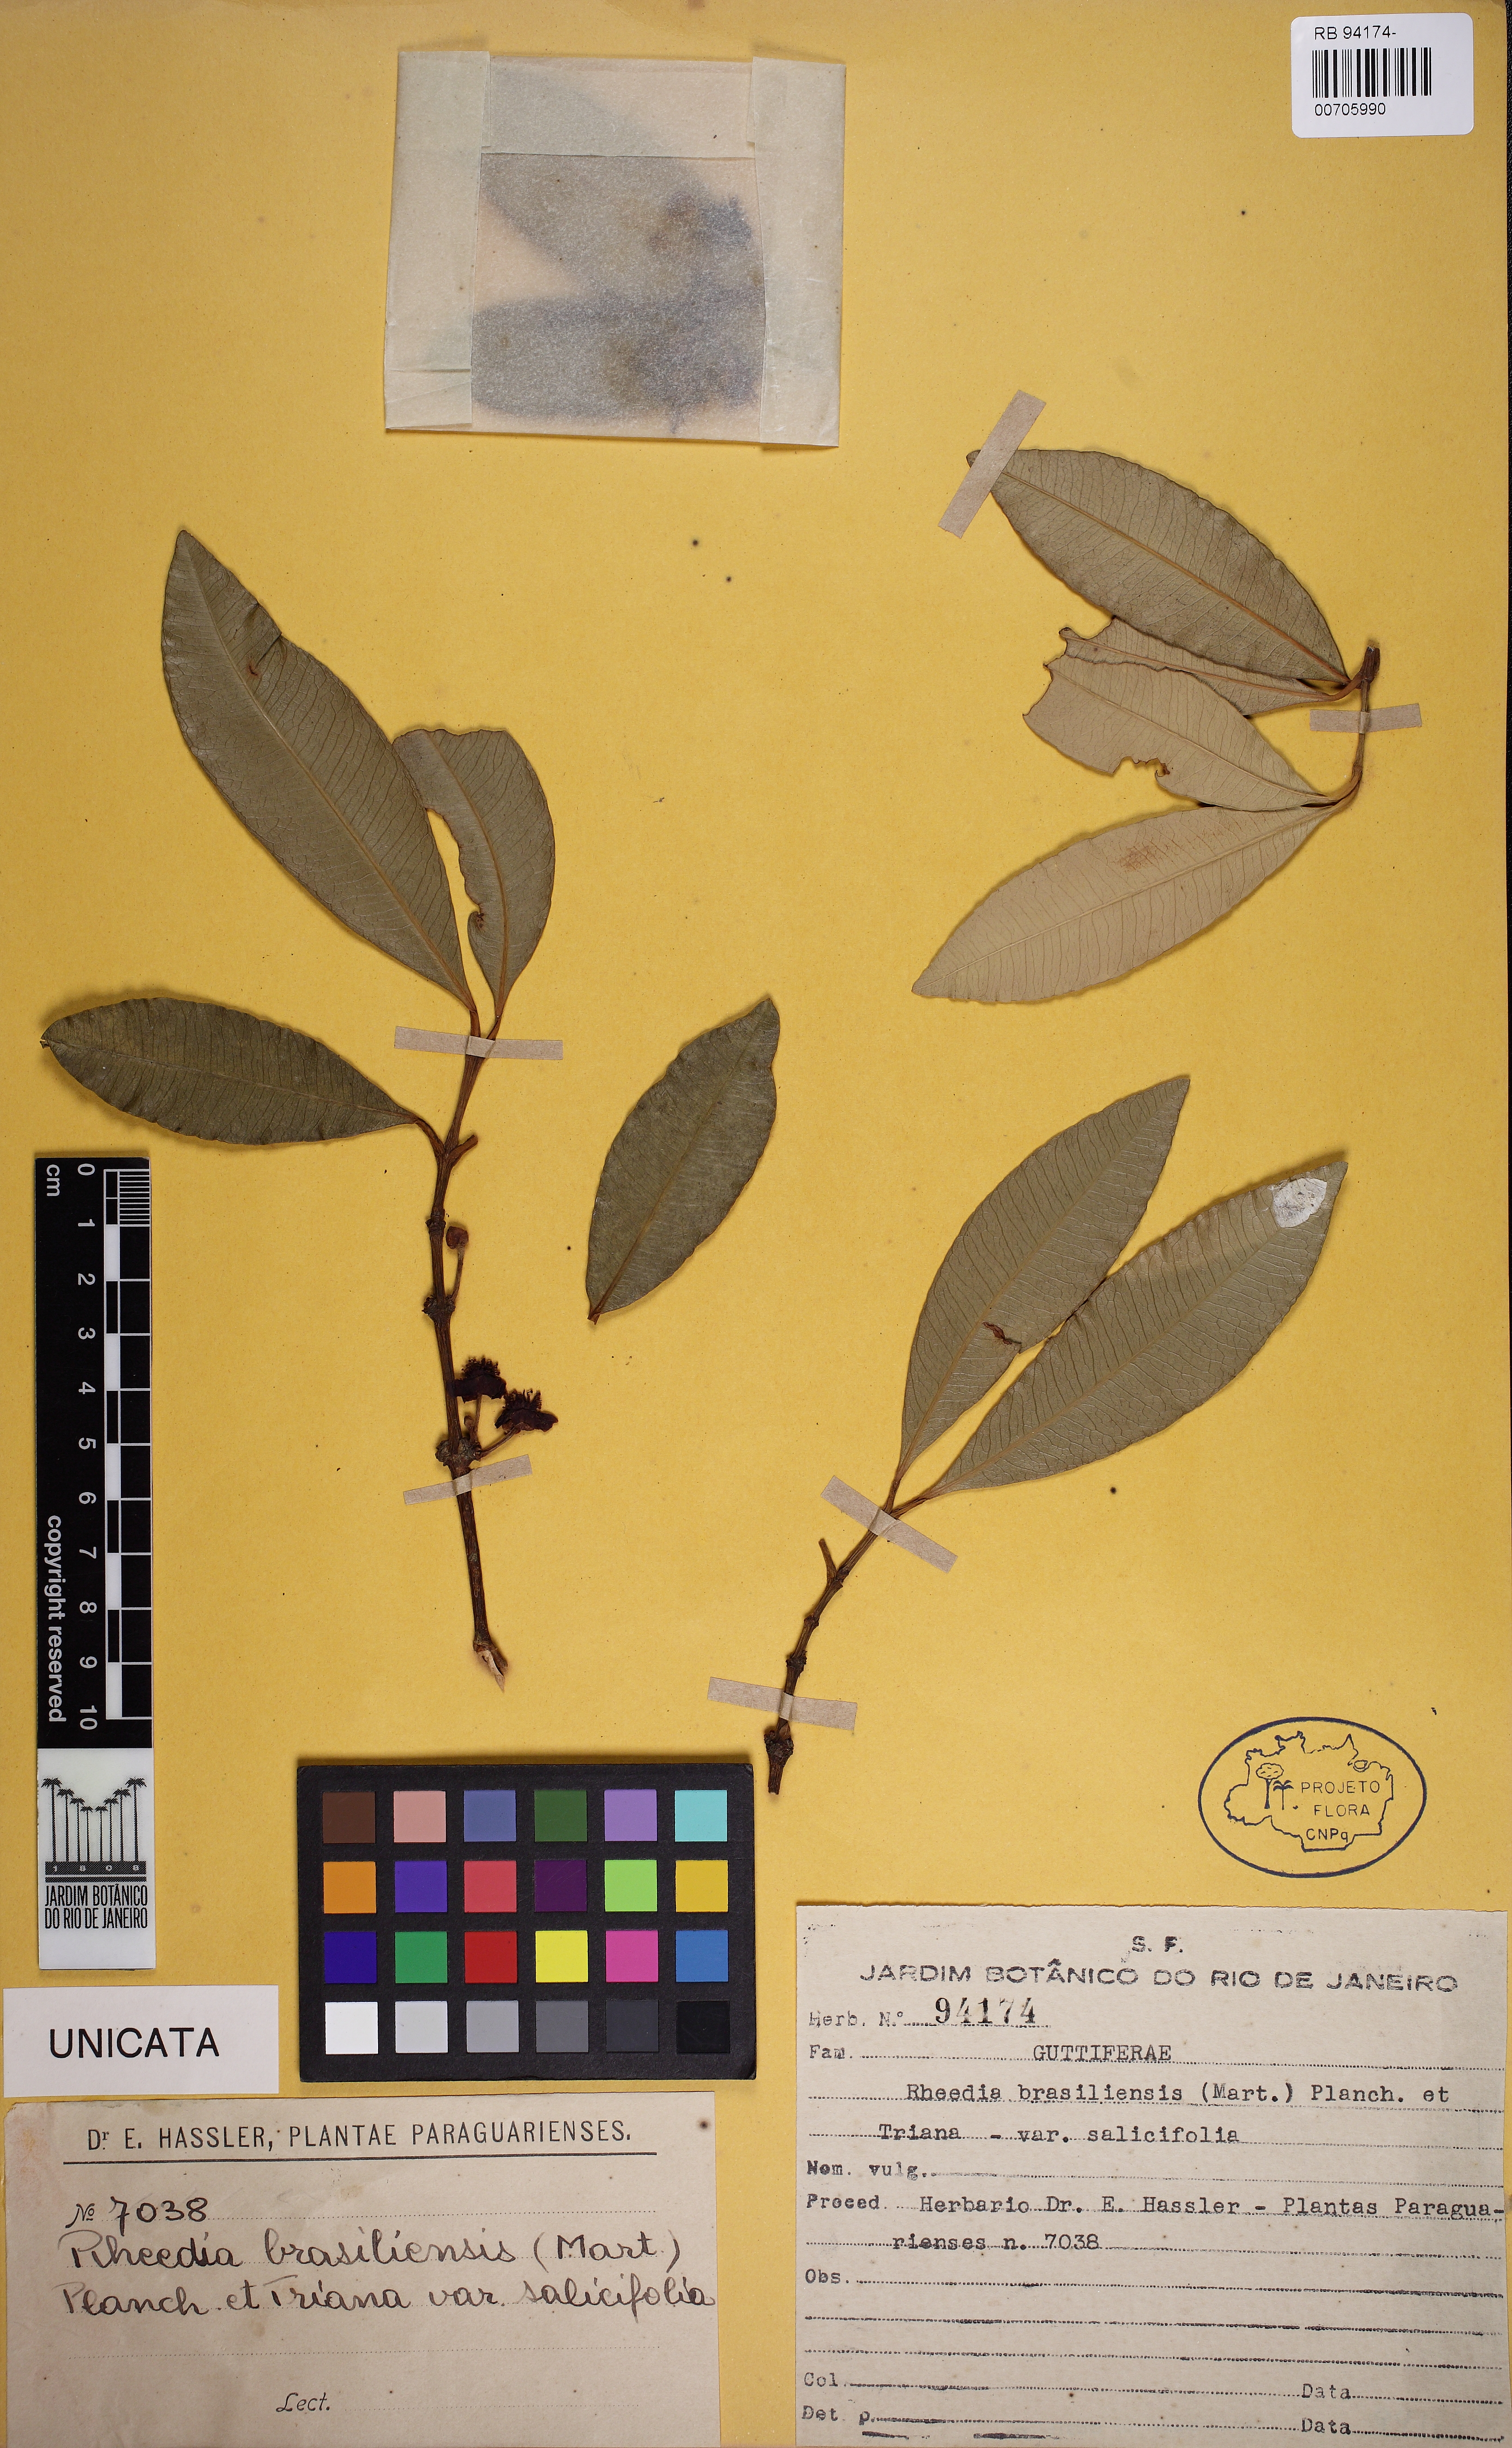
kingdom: Plantae
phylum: Tracheophyta
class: Magnoliopsida
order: Malpighiales
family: Clusiaceae
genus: Garcinia
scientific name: Garcinia brasiliensis
